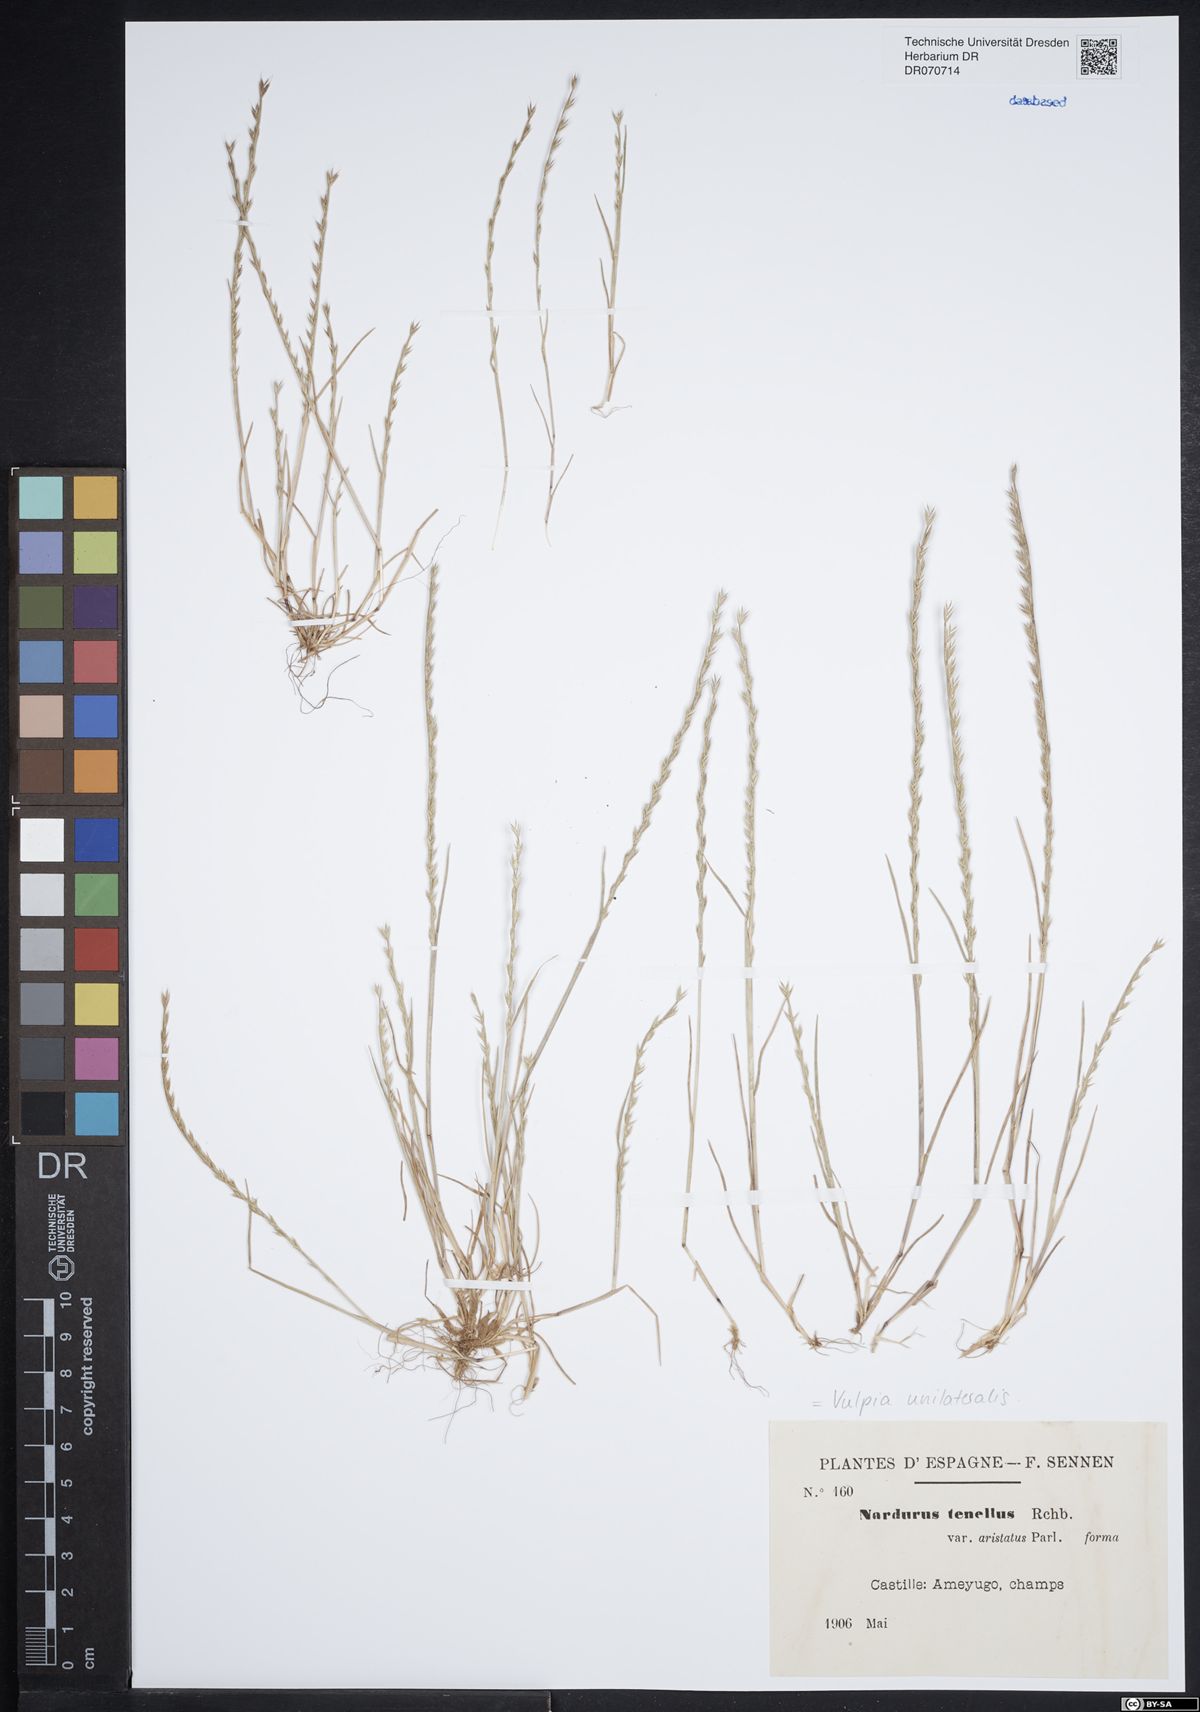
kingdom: Plantae
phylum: Tracheophyta
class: Liliopsida
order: Poales
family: Poaceae
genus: Festuca
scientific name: Festuca maritima
